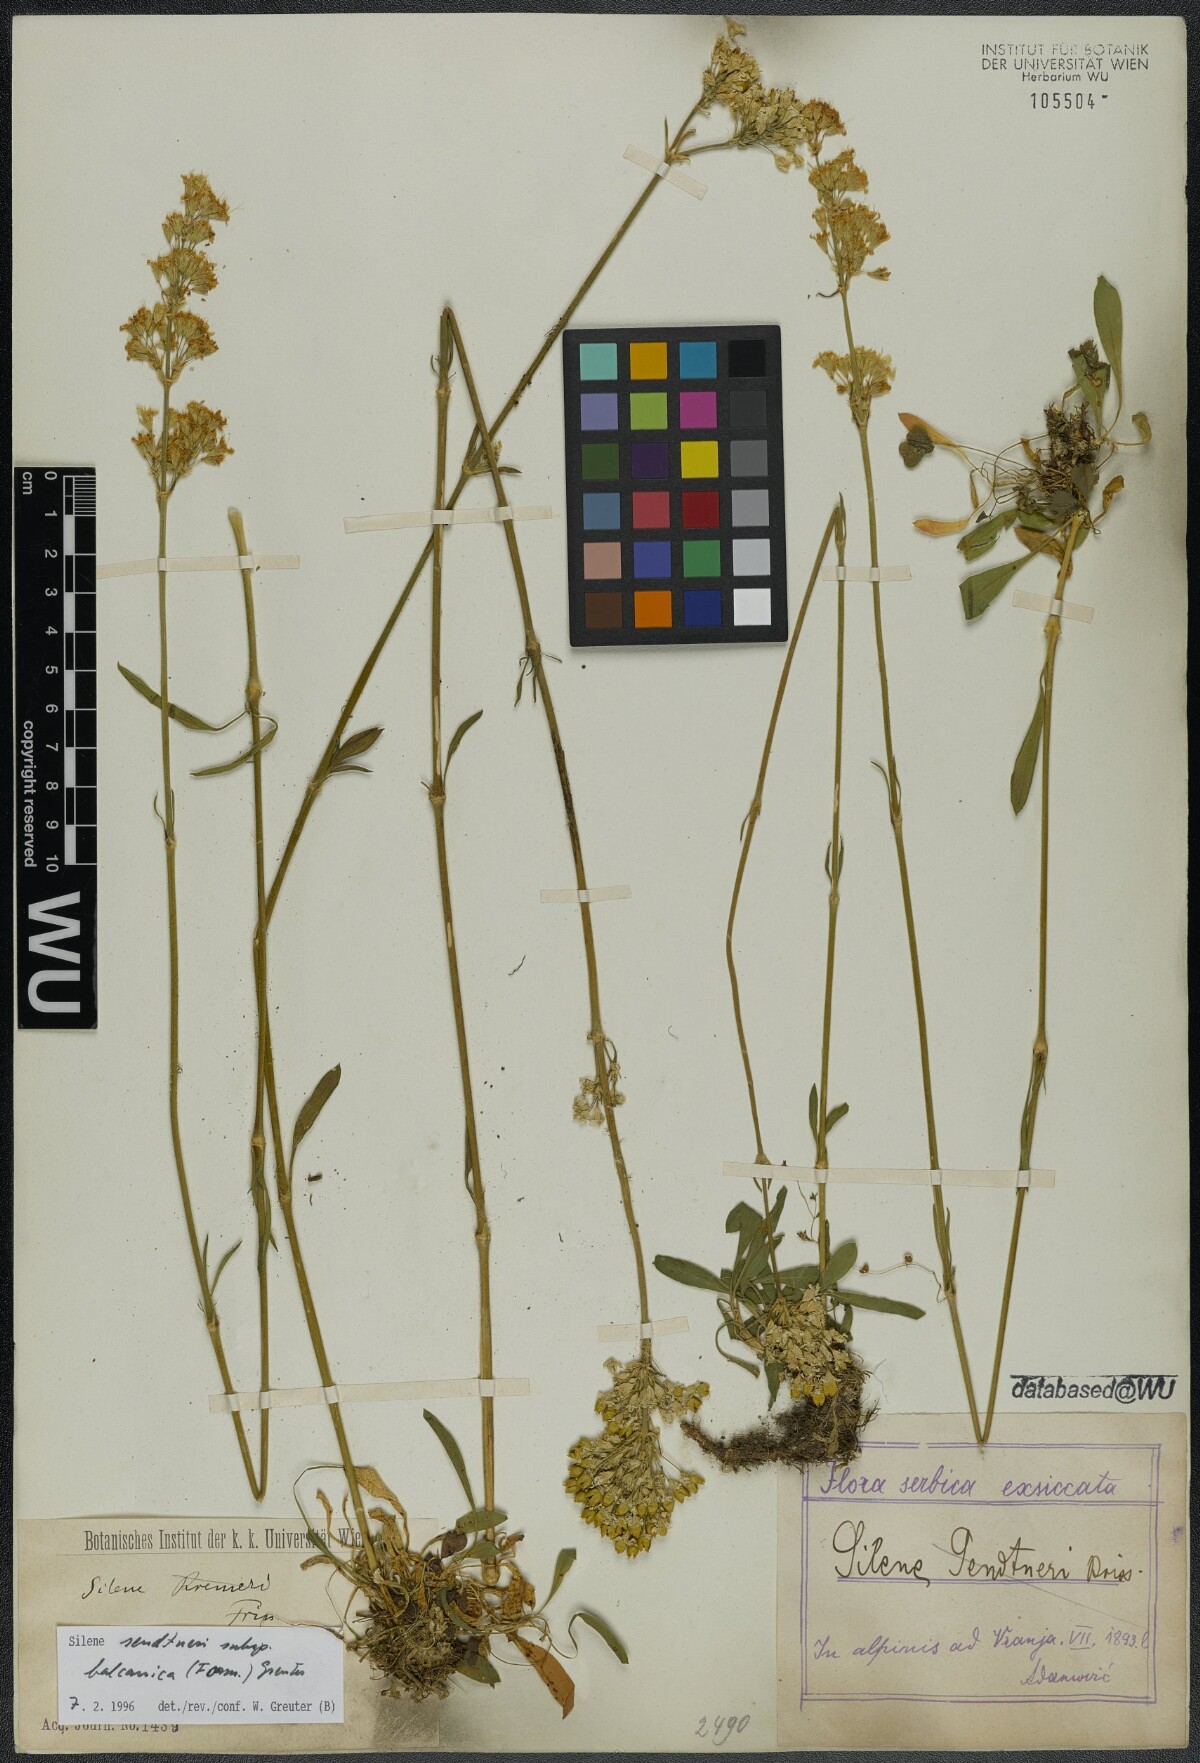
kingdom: Plantae
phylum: Tracheophyta
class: Magnoliopsida
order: Caryophyllales
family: Caryophyllaceae
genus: Silene
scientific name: Silene sendtneri
